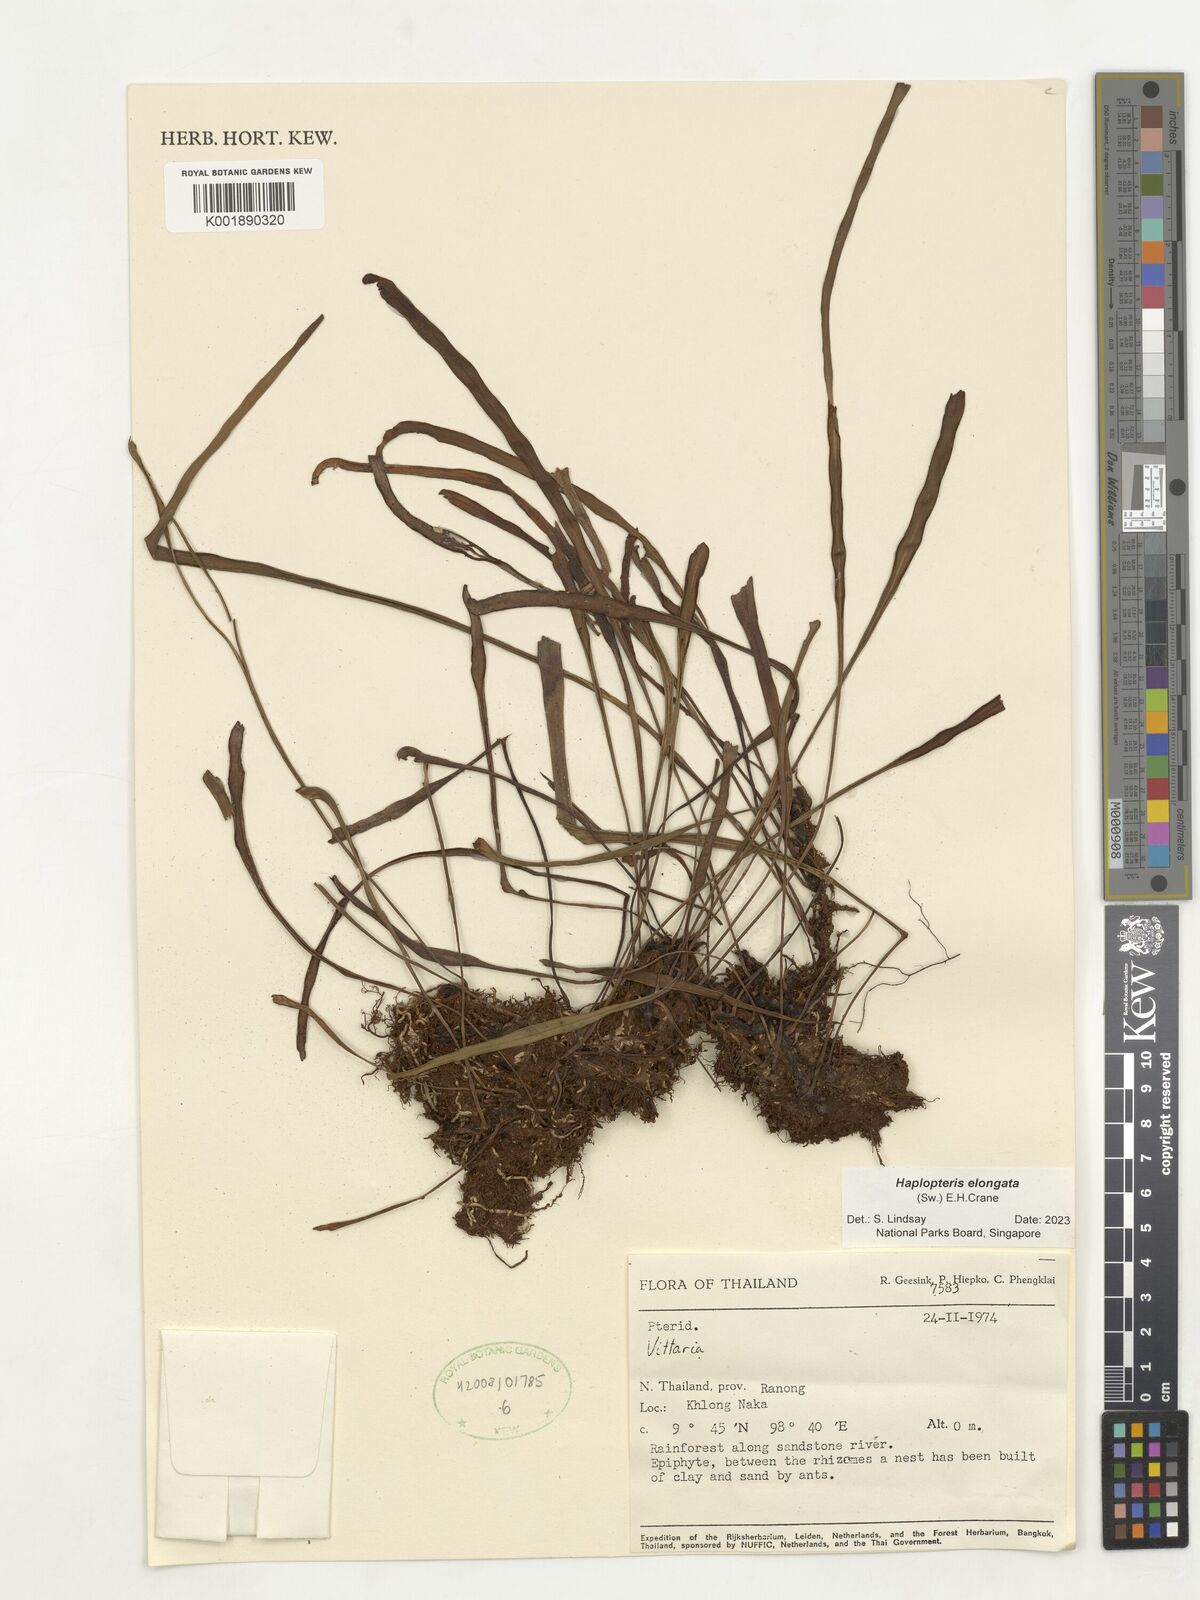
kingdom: Plantae
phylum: Tracheophyta
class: Polypodiopsida
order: Polypodiales
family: Pteridaceae
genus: Haplopteris
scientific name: Haplopteris elongata
